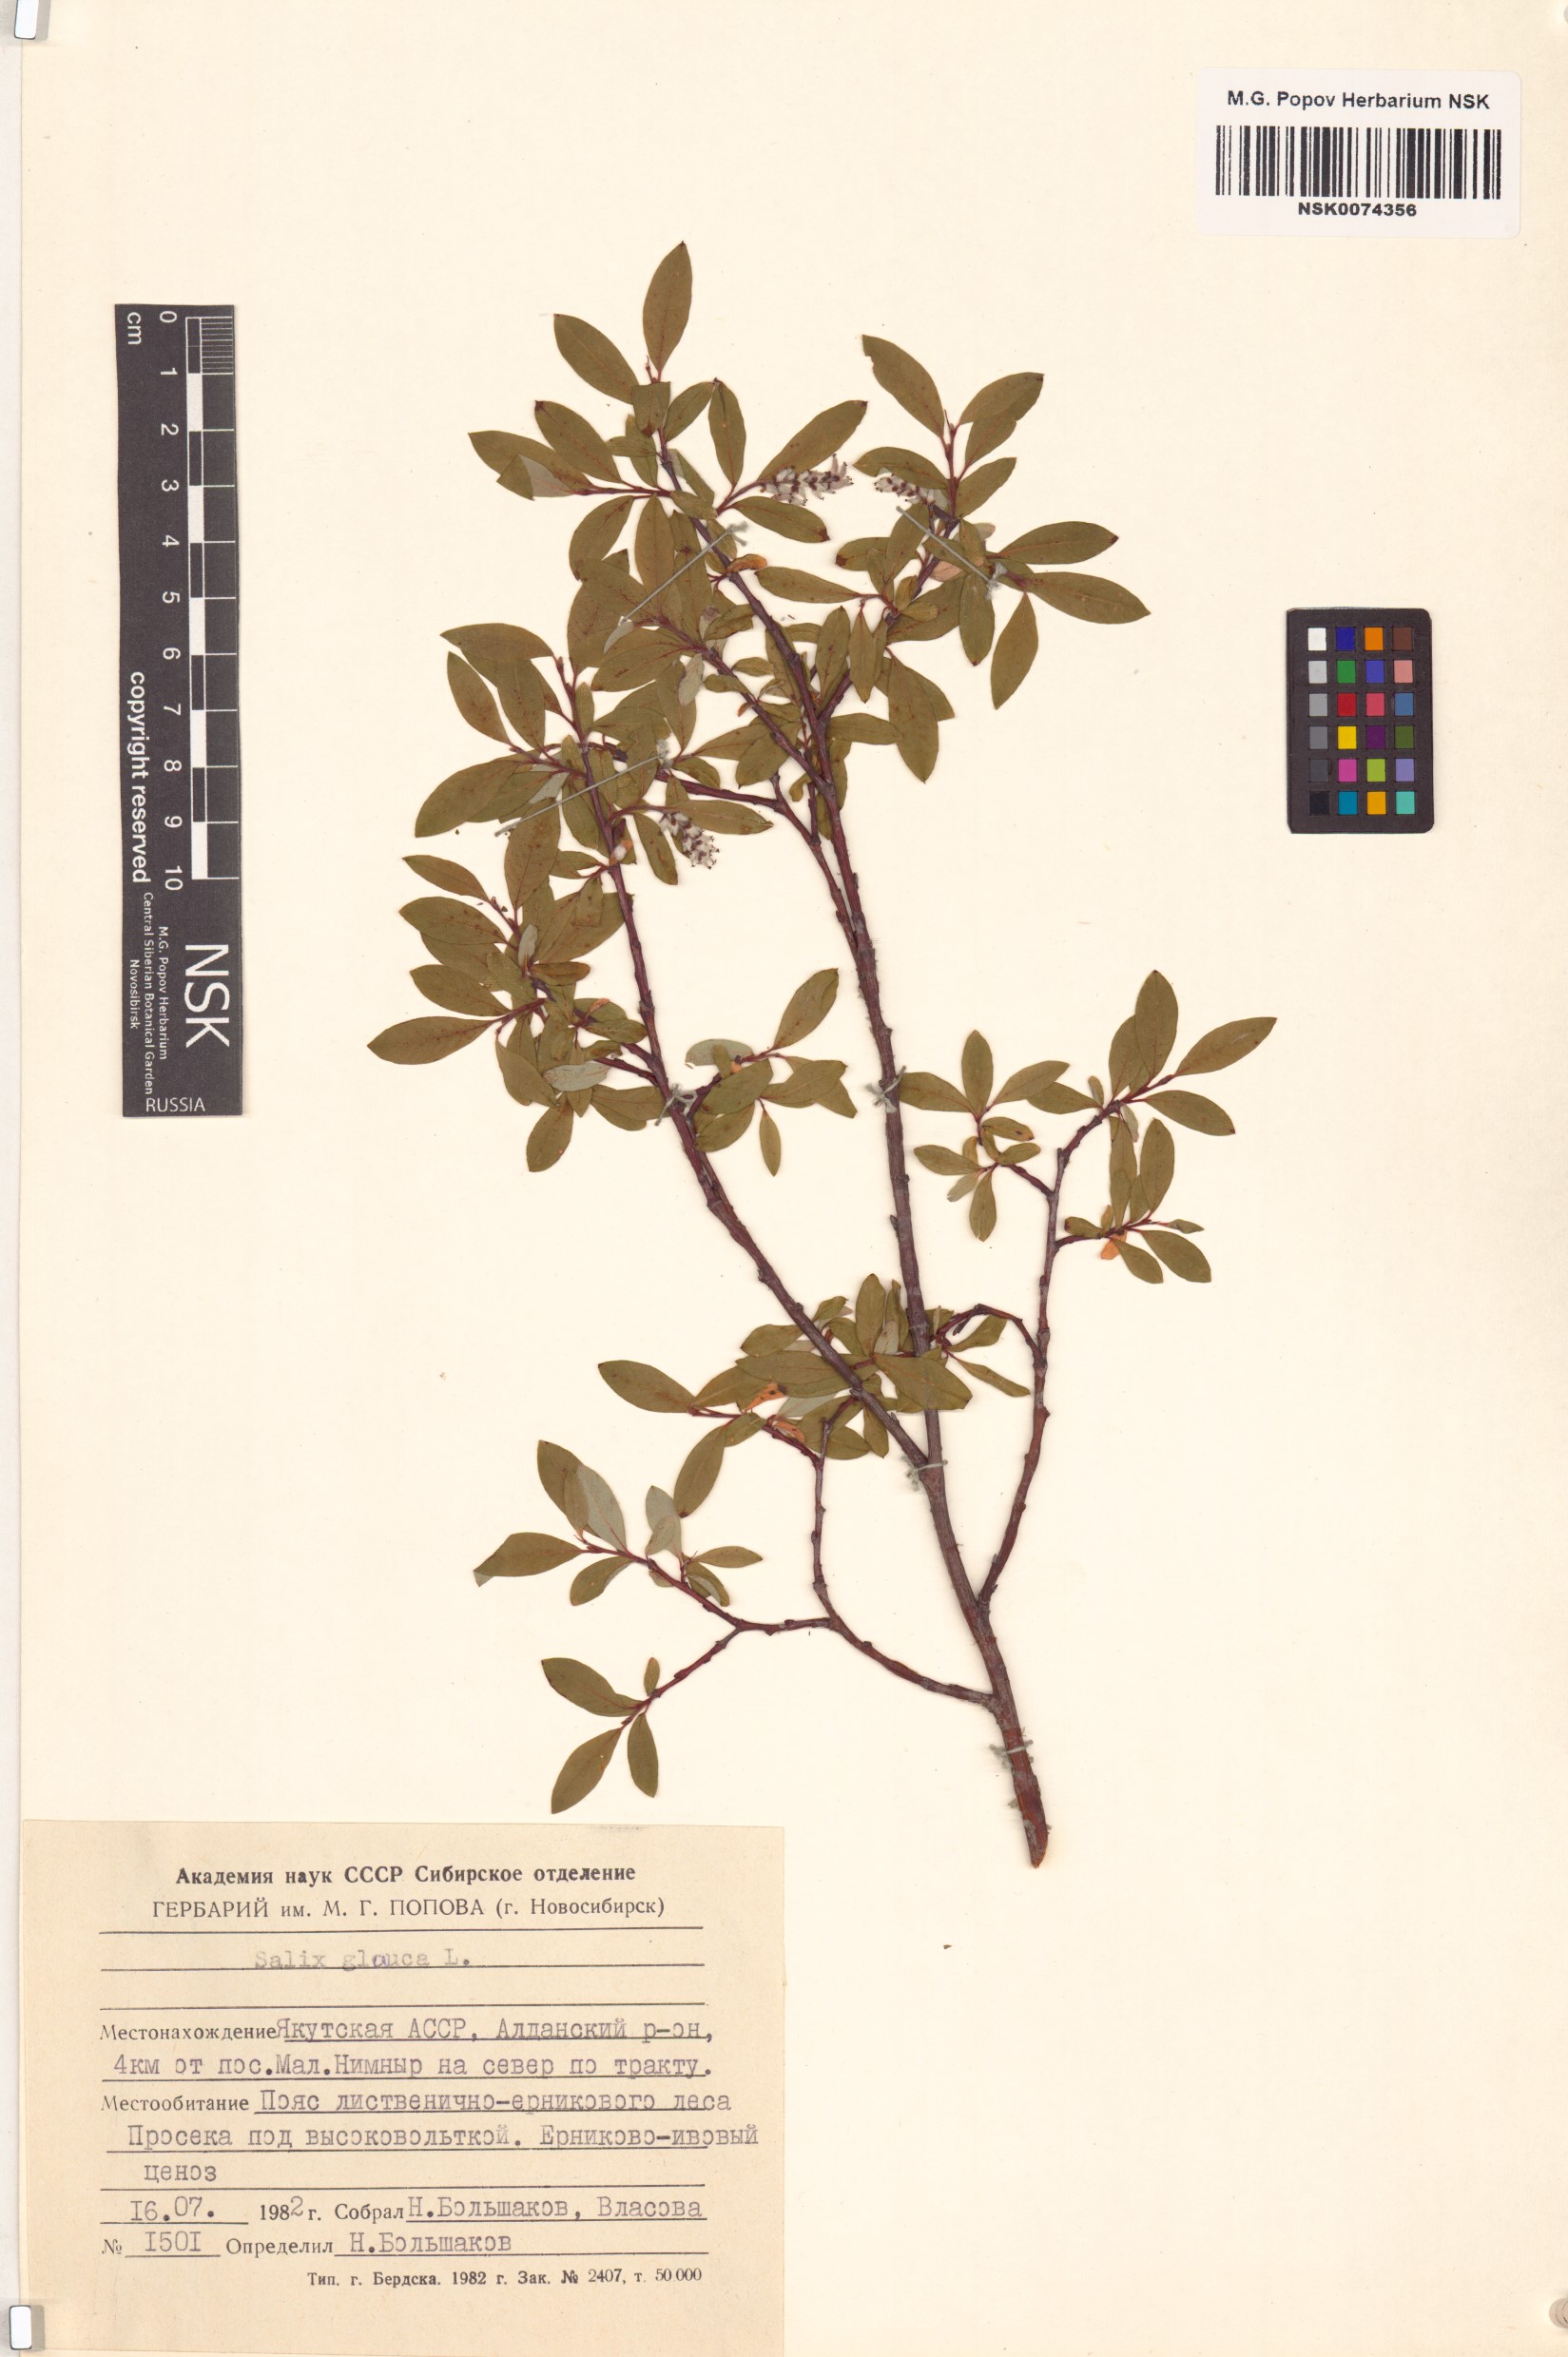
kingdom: Plantae
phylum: Tracheophyta
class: Magnoliopsida
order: Malpighiales
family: Salicaceae
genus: Salix
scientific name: Salix glauca
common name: Glaucous willow
